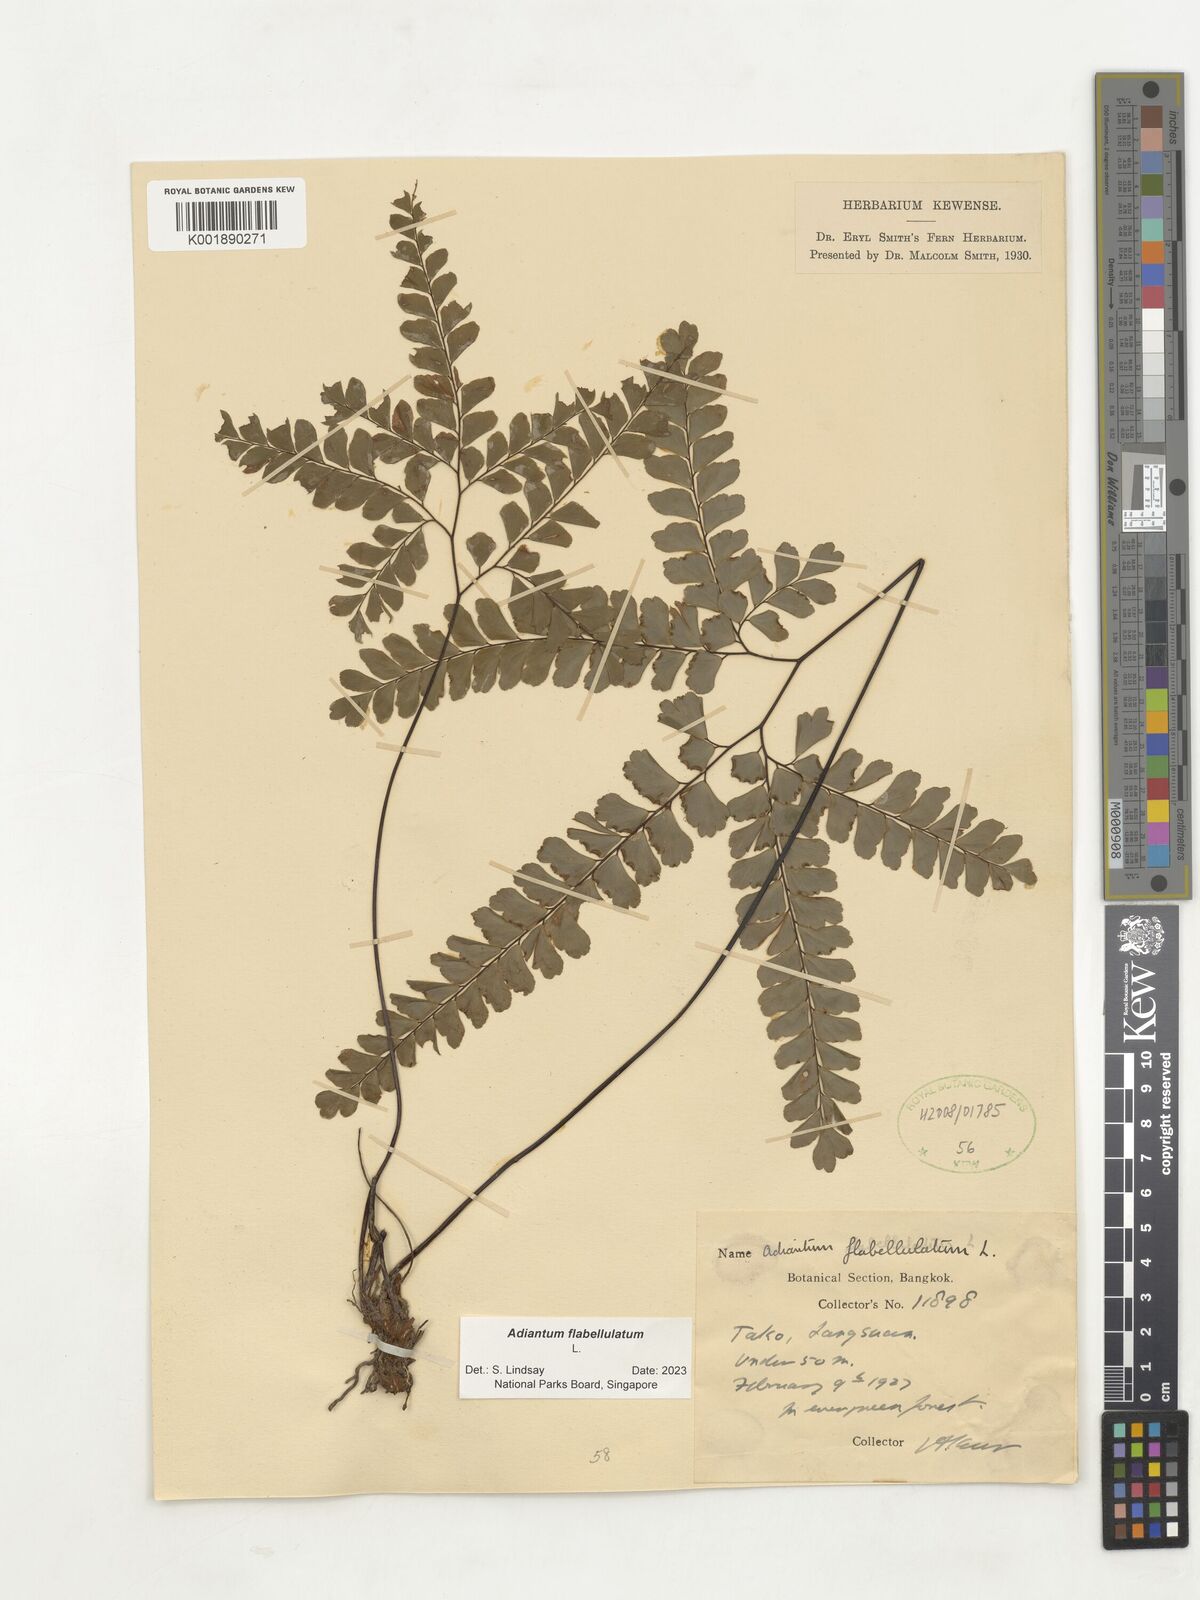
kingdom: Plantae
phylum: Tracheophyta
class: Polypodiopsida
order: Polypodiales
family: Pteridaceae
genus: Adiantum
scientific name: Adiantum flabellulatum
